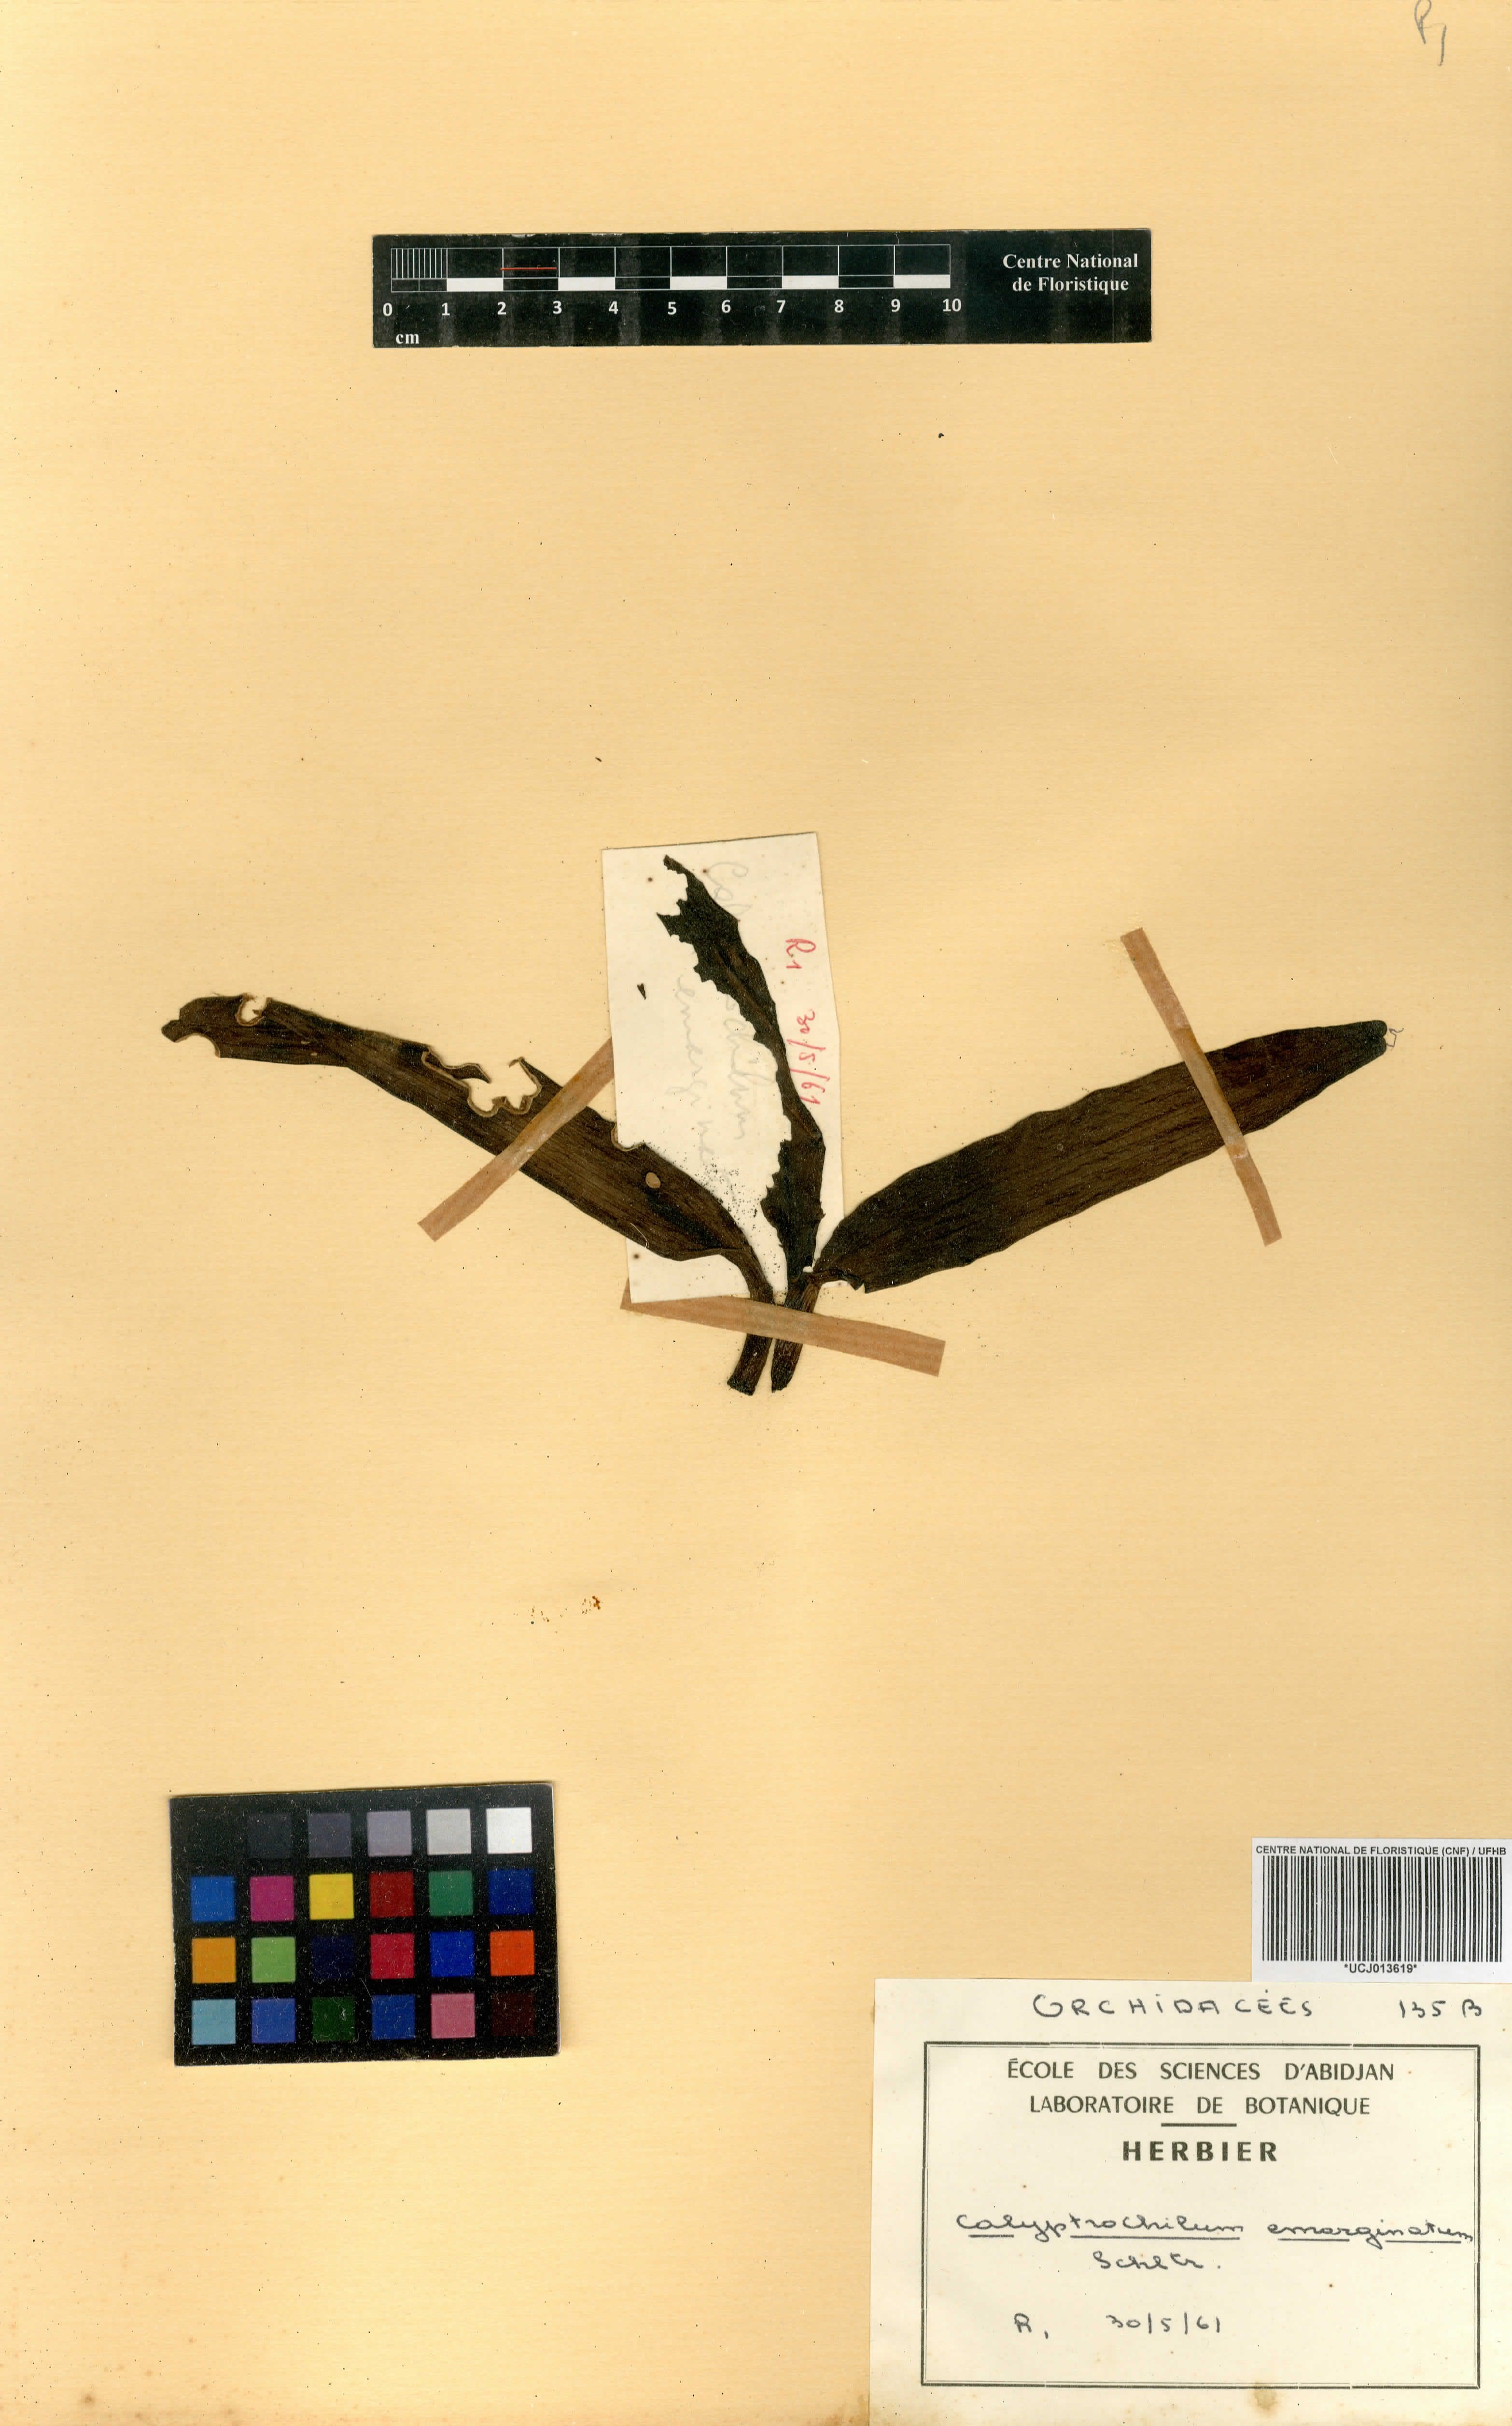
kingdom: Plantae
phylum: Tracheophyta
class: Liliopsida
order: Asparagales
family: Orchidaceae
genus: Calyptrochilum
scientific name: Calyptrochilum emarginatum
